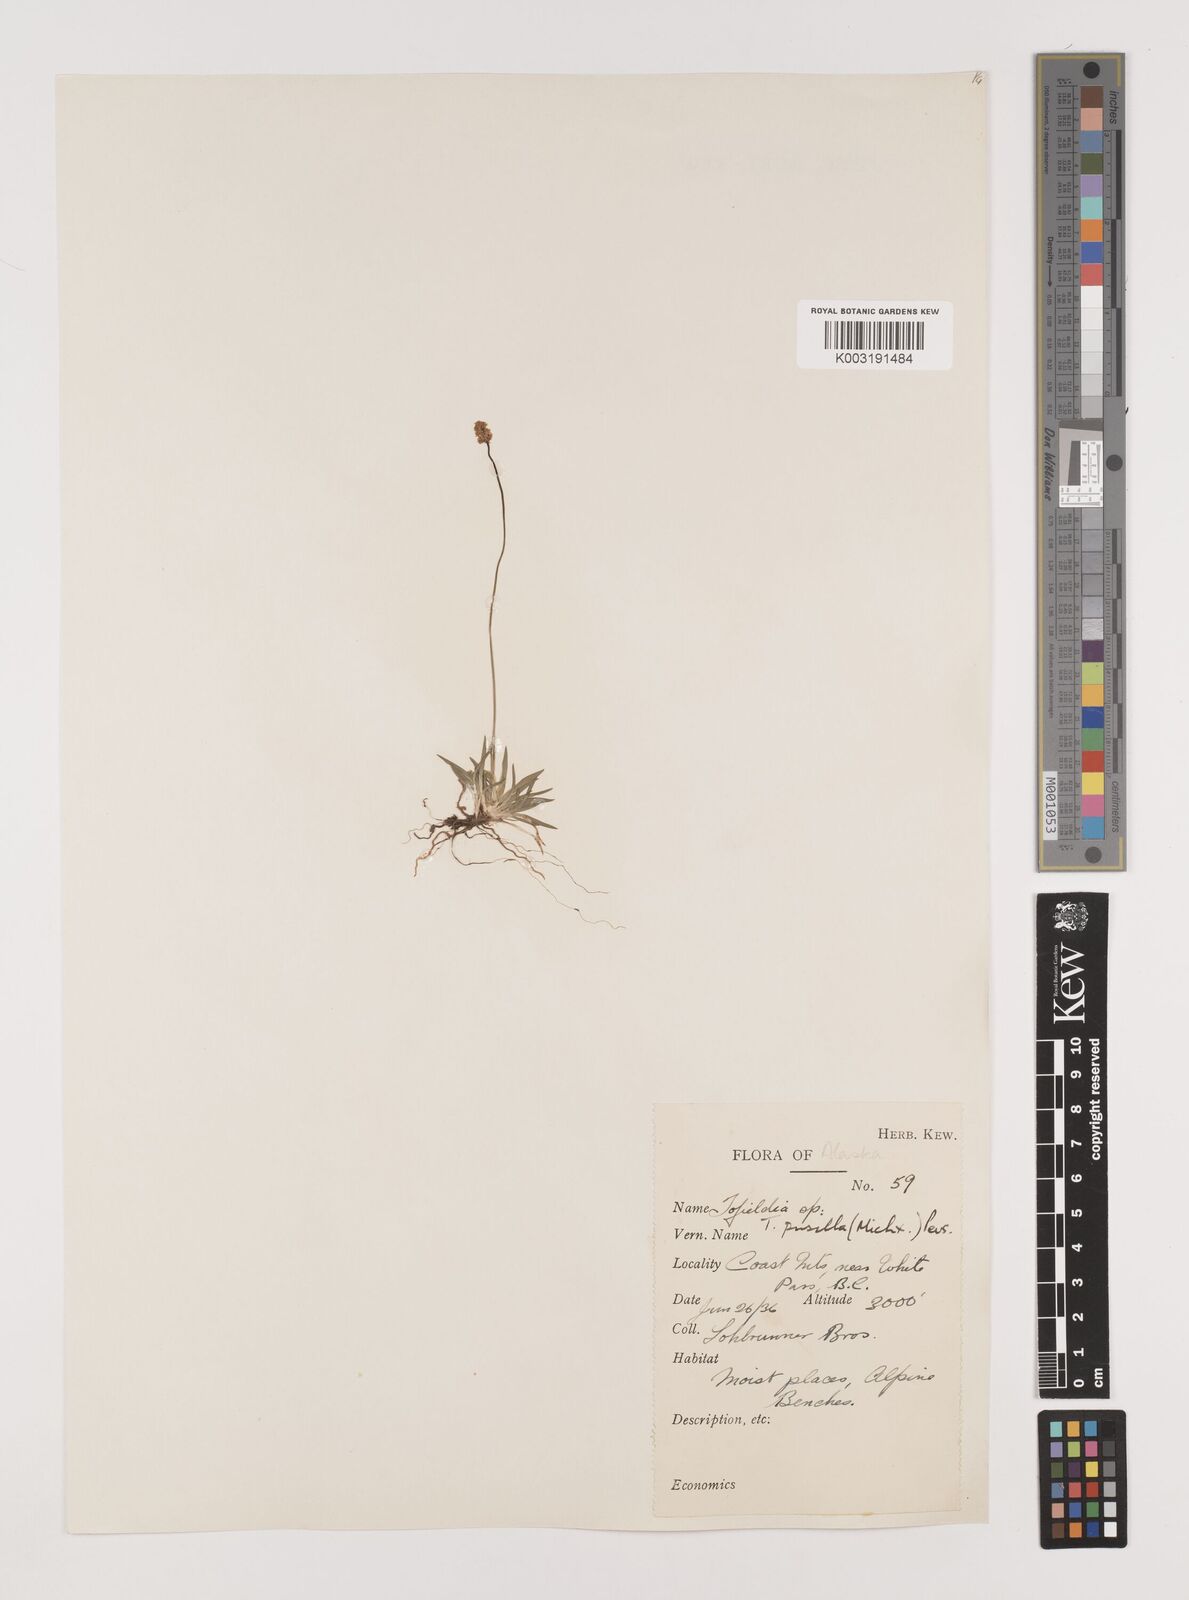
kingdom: Plantae
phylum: Tracheophyta
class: Liliopsida
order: Alismatales
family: Tofieldiaceae
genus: Tofieldia
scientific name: Tofieldia pusilla
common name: Scottish false asphodel
